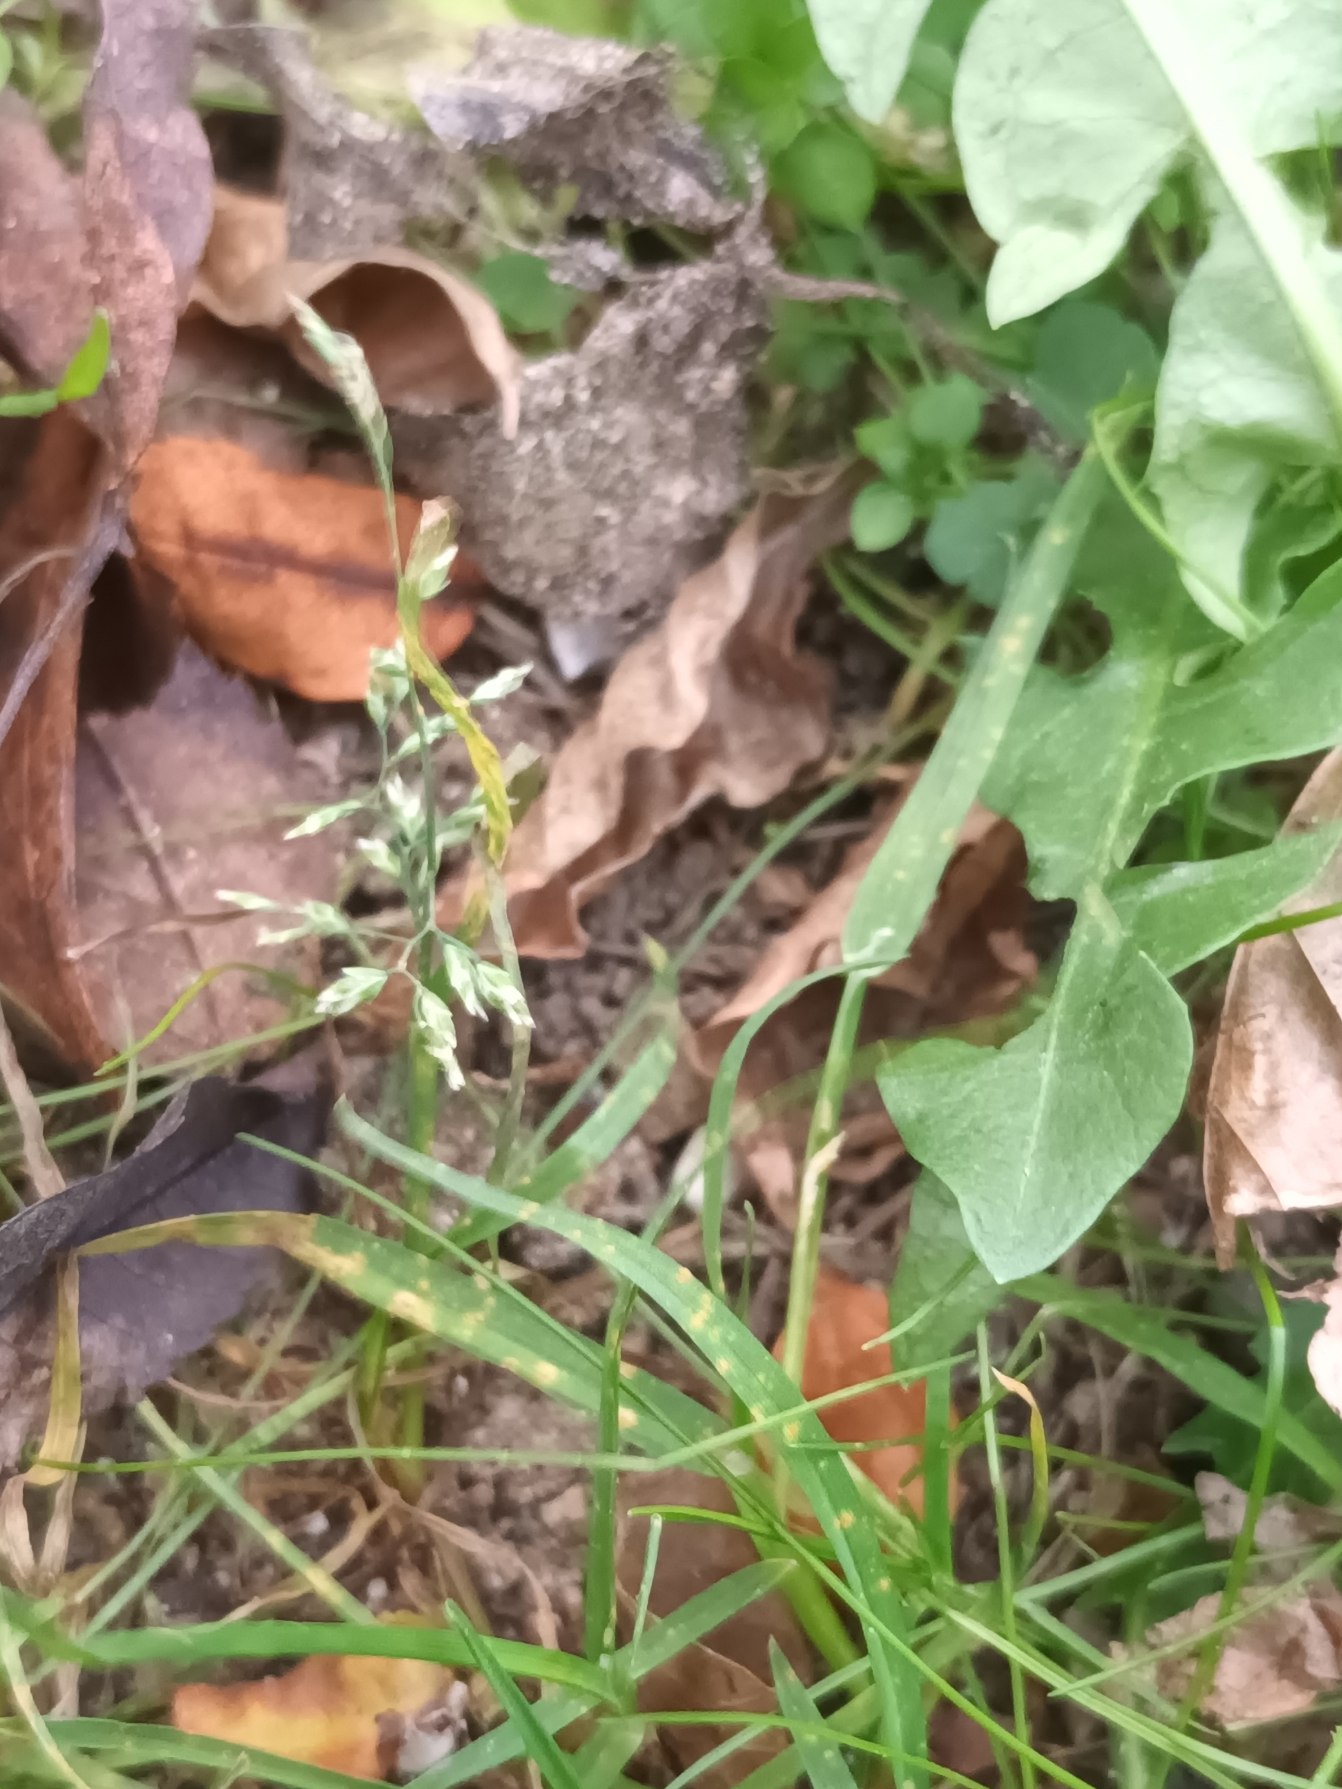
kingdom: Plantae
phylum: Tracheophyta
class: Liliopsida
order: Poales
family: Poaceae
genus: Poa
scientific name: Poa annua
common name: Enårig rapgræs
